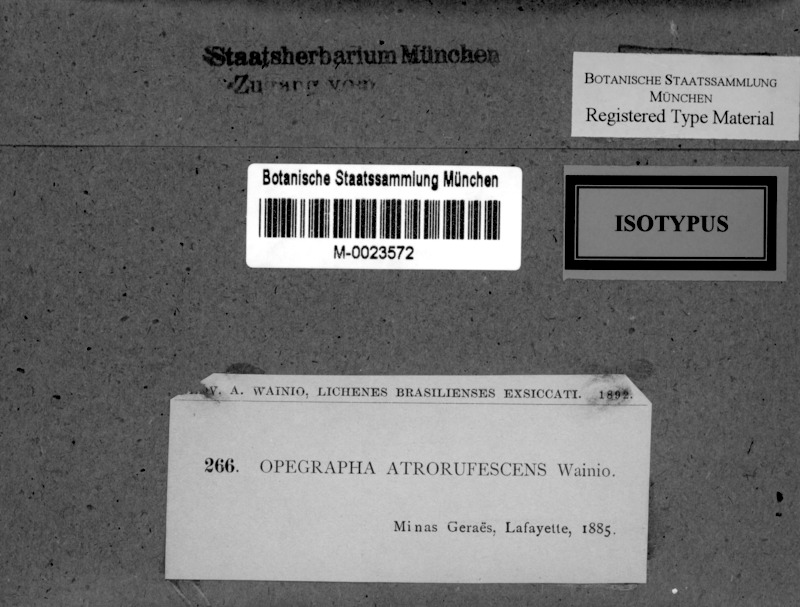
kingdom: Fungi
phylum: Ascomycota
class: Arthoniomycetes
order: Arthoniales
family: Opegraphaceae
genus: Opegrapha
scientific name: Opegrapha
